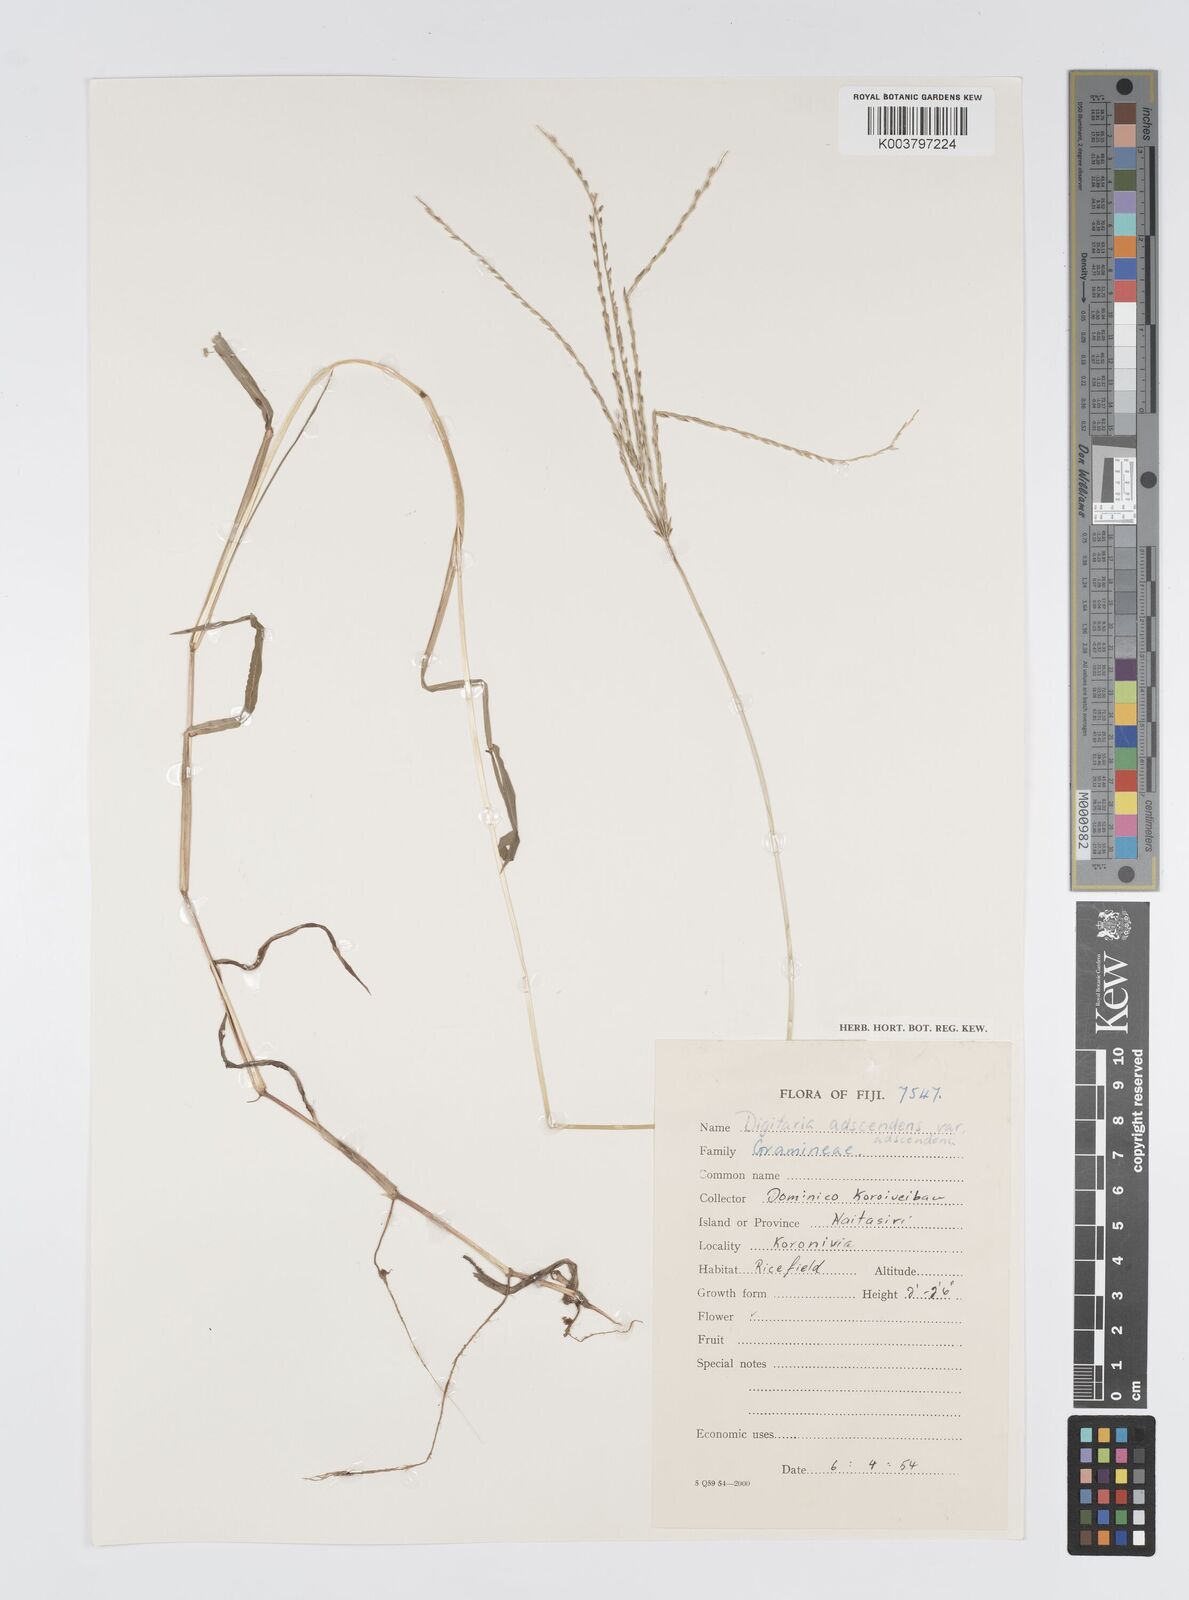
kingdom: Plantae
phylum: Tracheophyta
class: Liliopsida
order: Poales
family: Poaceae
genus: Digitaria
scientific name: Digitaria ciliaris
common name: Tropical finger-grass
